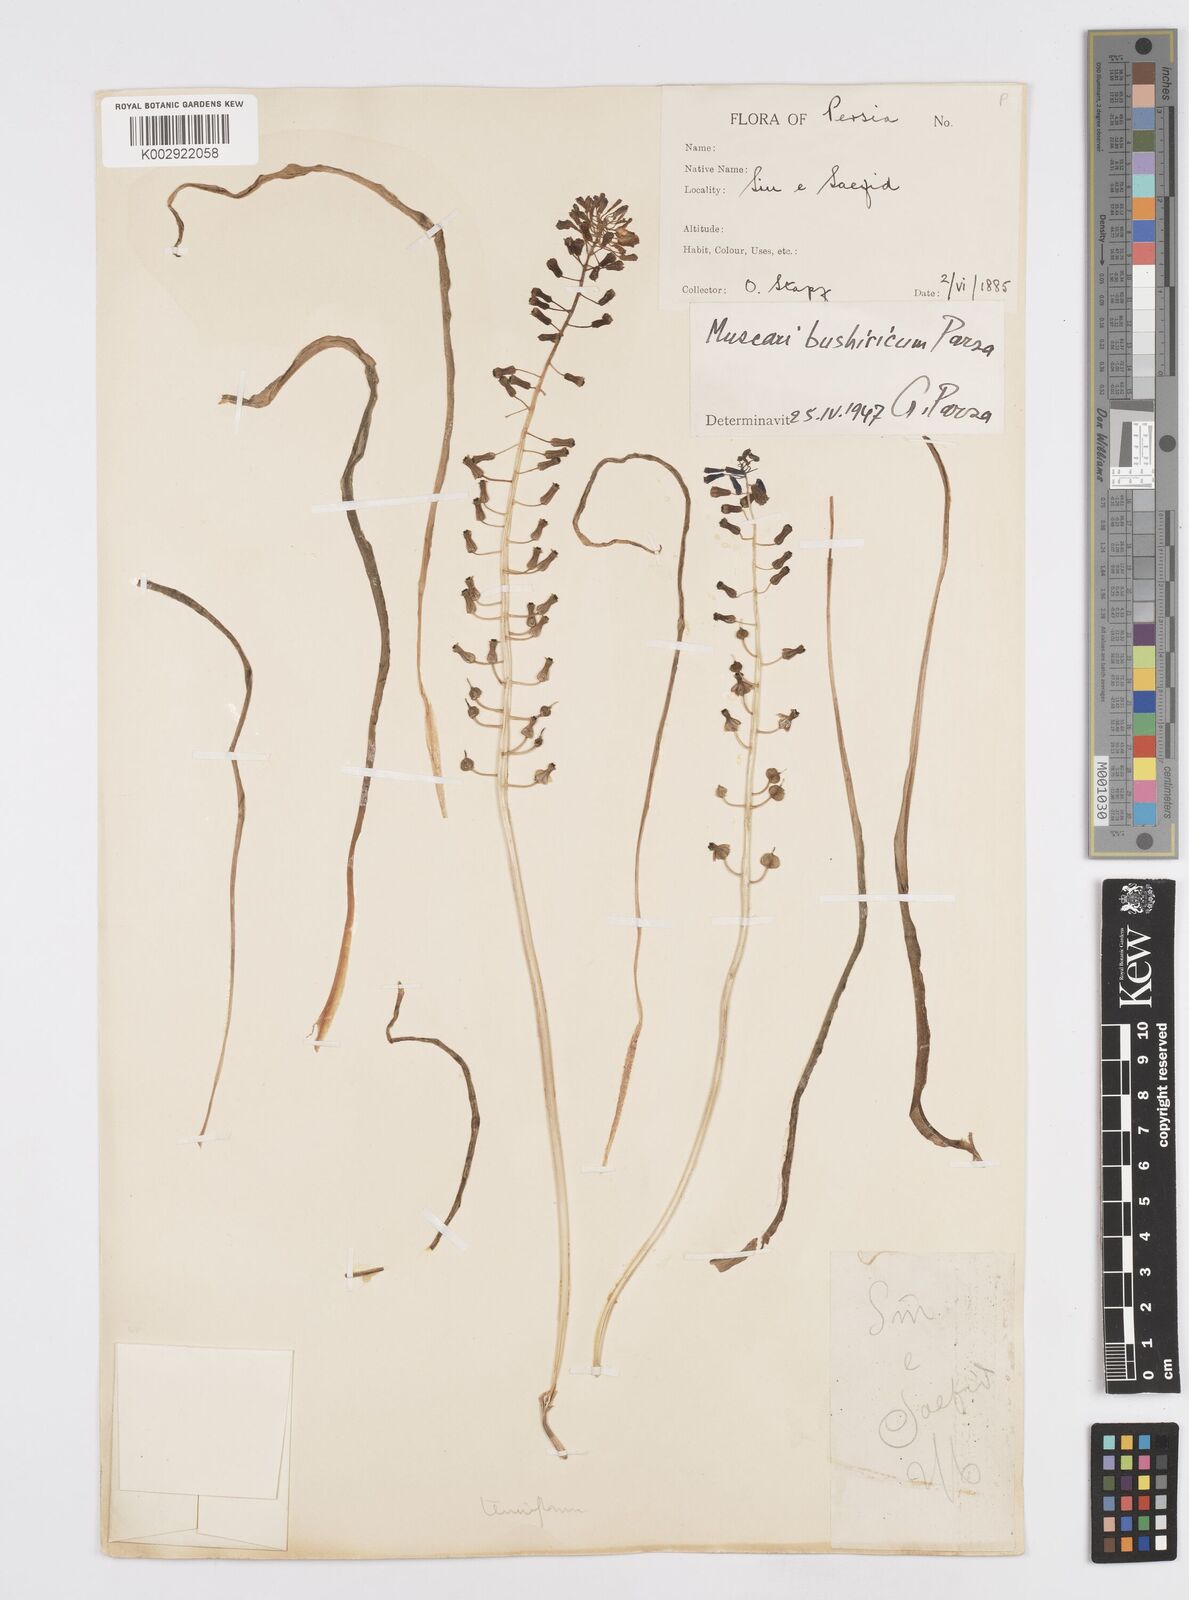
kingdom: Animalia
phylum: Mollusca
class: Cephalopoda
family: Neocomitidae
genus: Leopoldia
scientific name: Leopoldia
